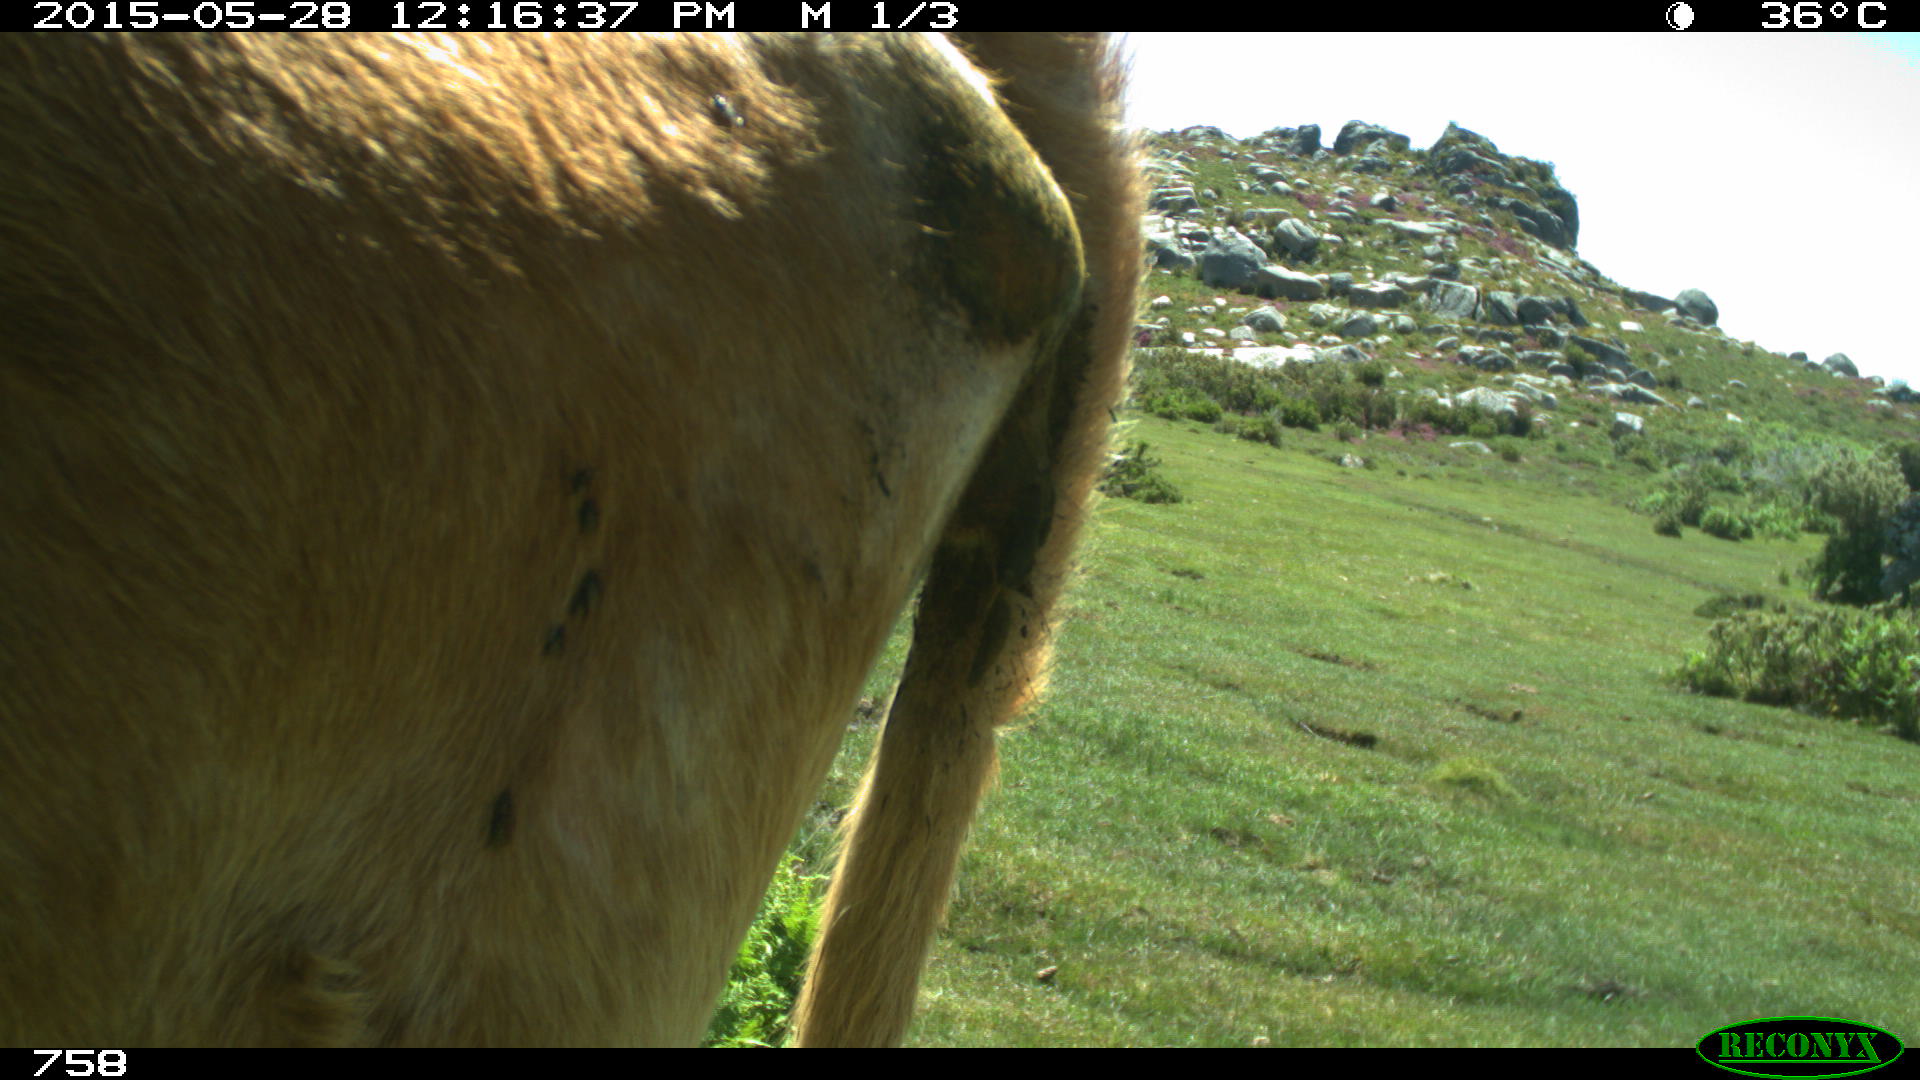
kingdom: Animalia
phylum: Chordata
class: Mammalia
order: Artiodactyla
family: Bovidae
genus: Bos
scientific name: Bos taurus
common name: Domesticated cattle
